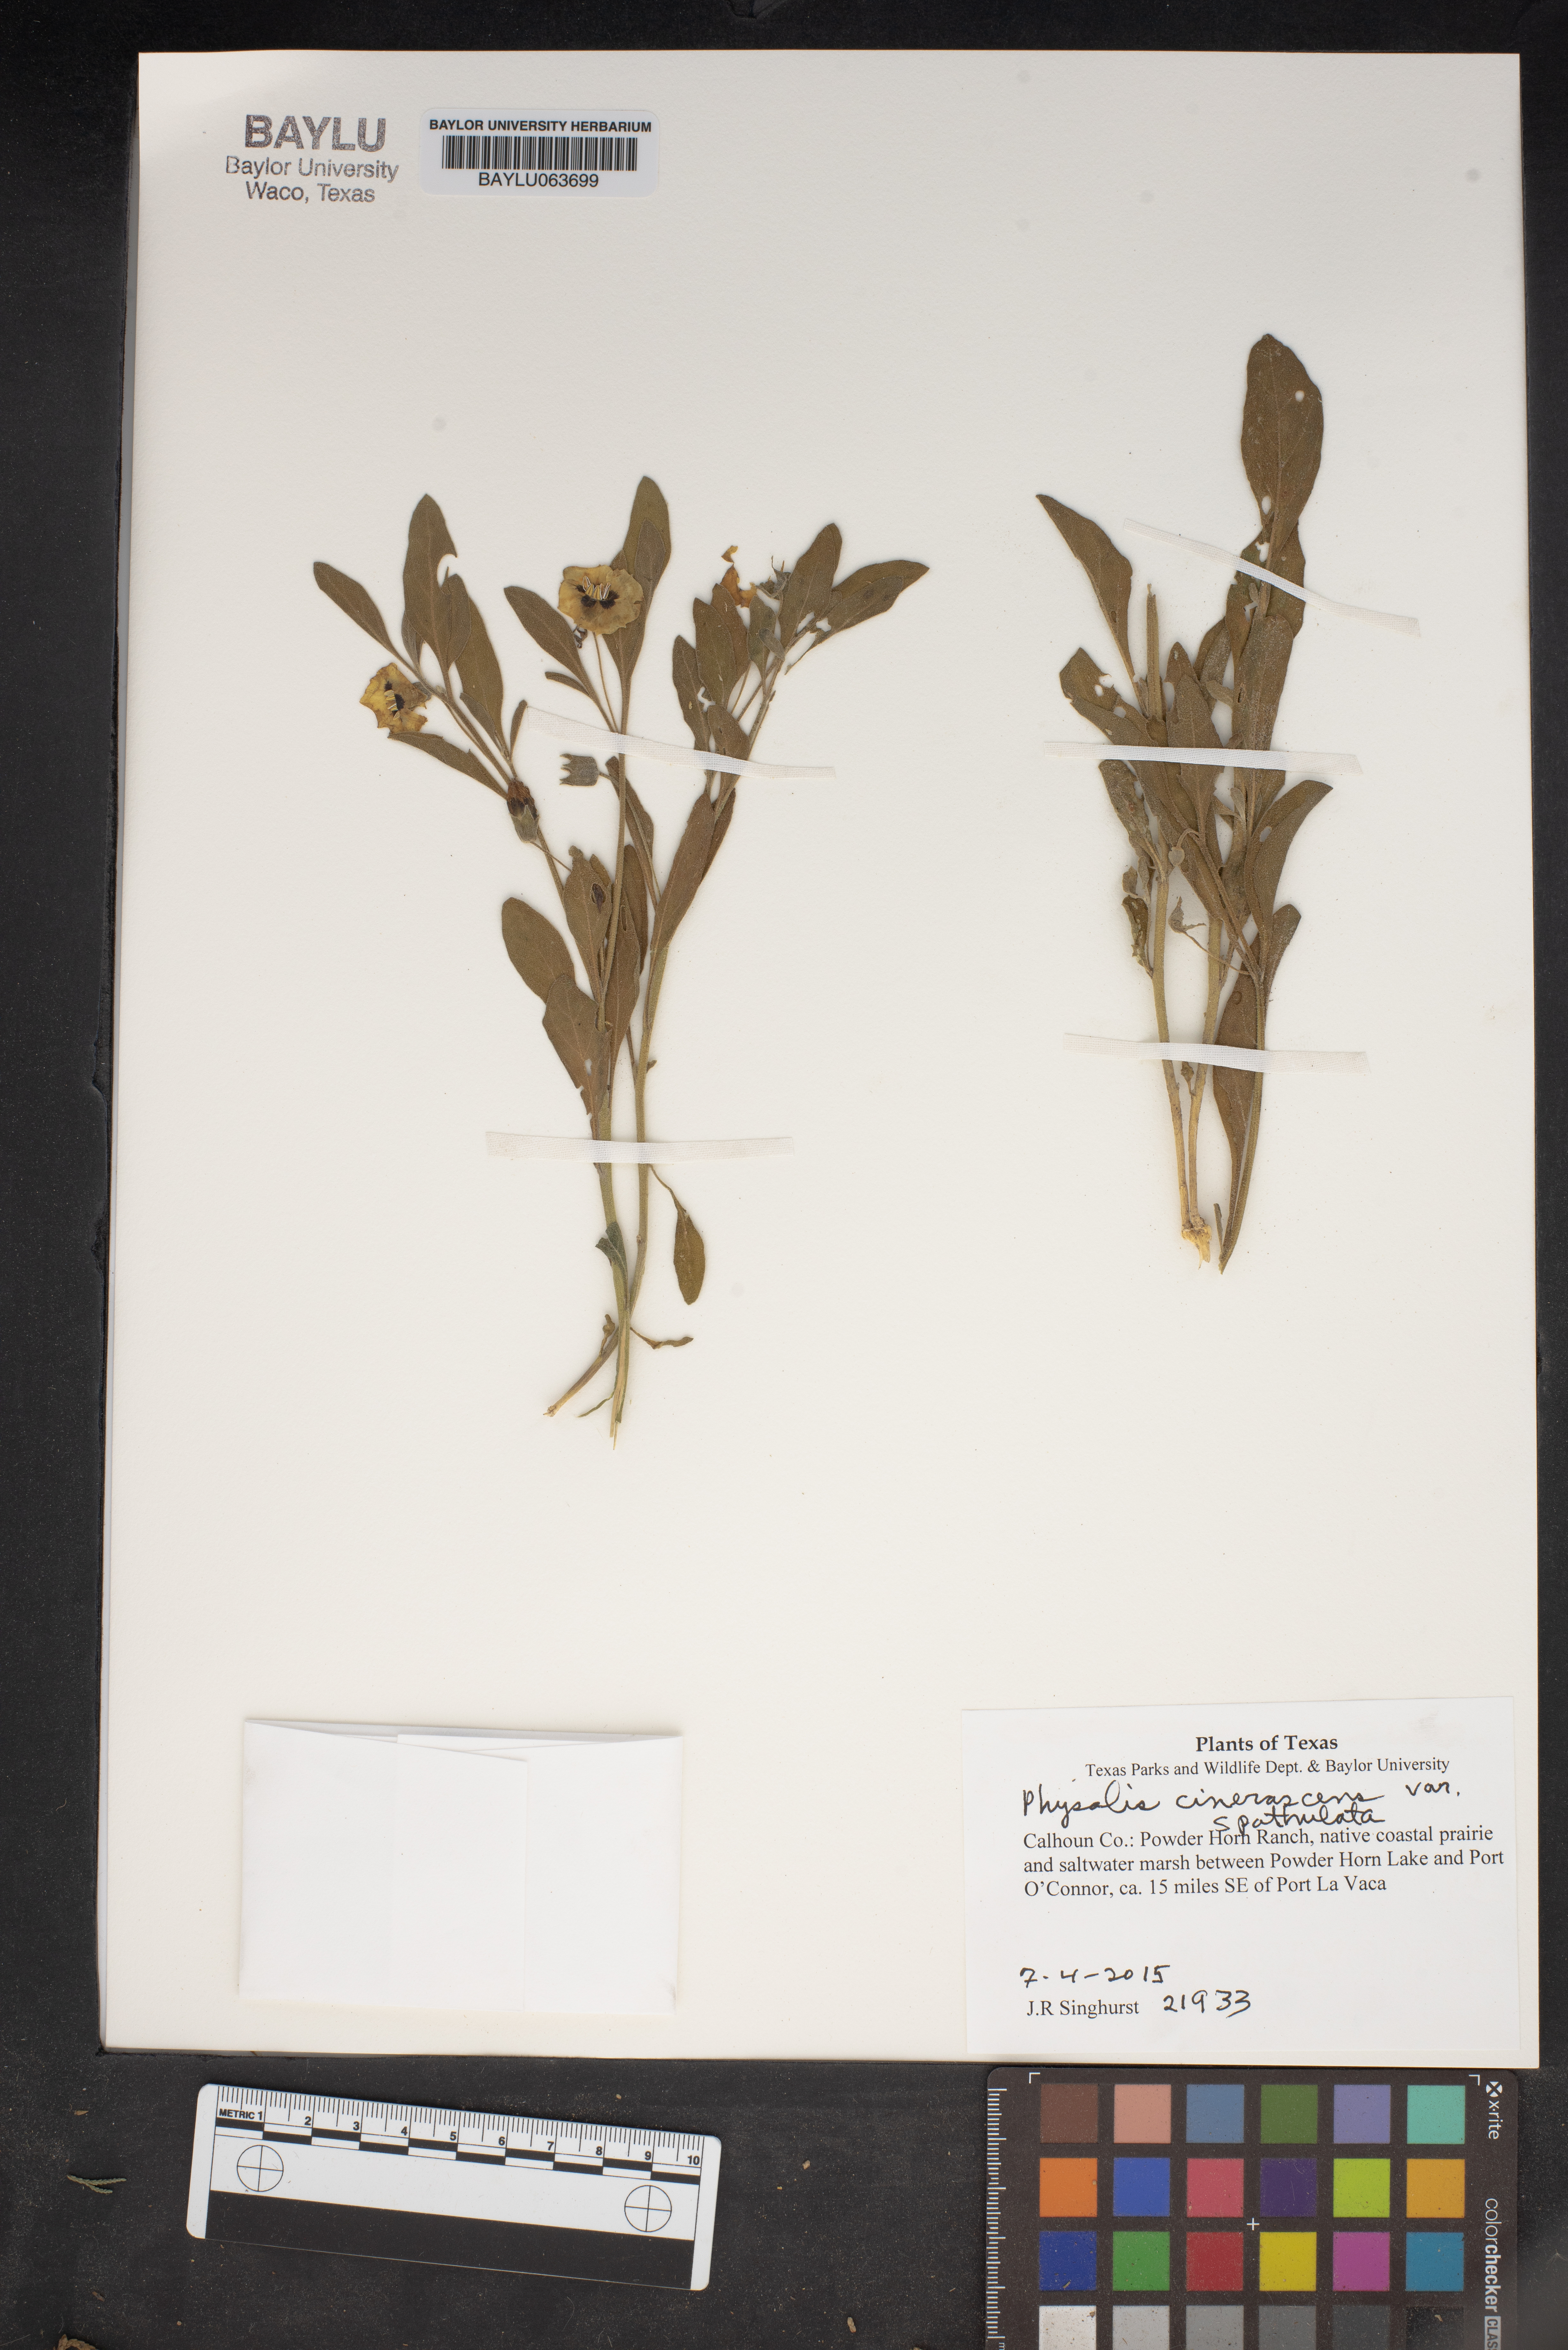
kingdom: Plantae
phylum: Tracheophyta
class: Magnoliopsida
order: Solanales
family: Solanaceae
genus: Physalis
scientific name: Physalis cinerascens
